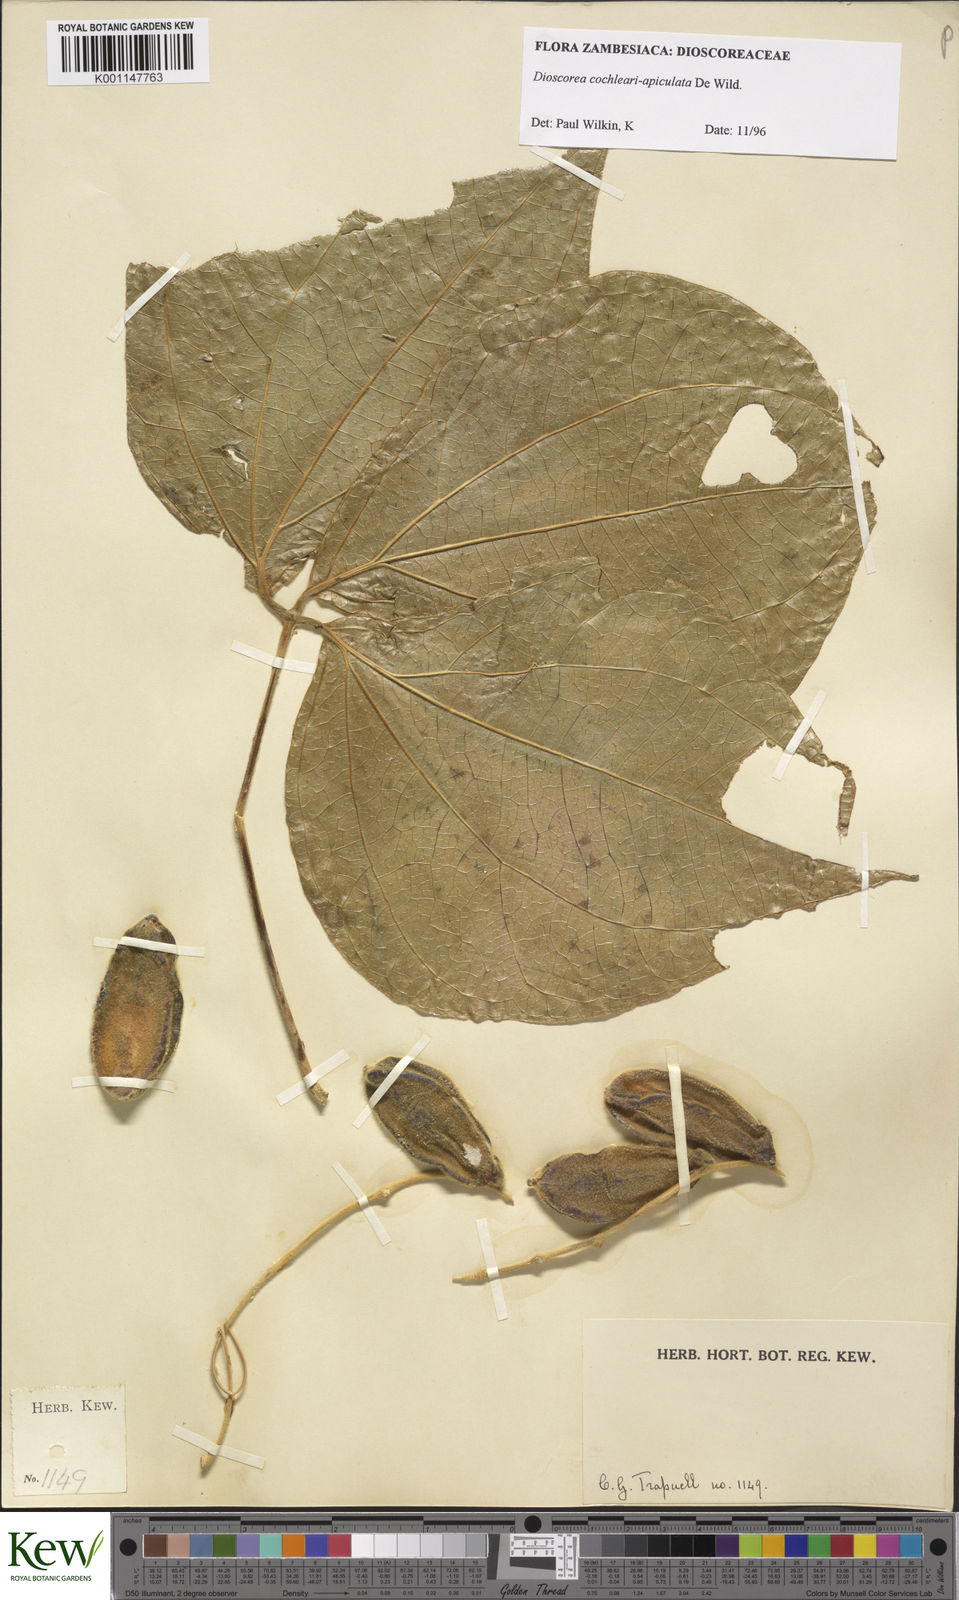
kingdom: Plantae
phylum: Tracheophyta
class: Liliopsida
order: Dioscoreales
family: Dioscoreaceae
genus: Dioscorea
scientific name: Dioscorea cochleariapiculata
